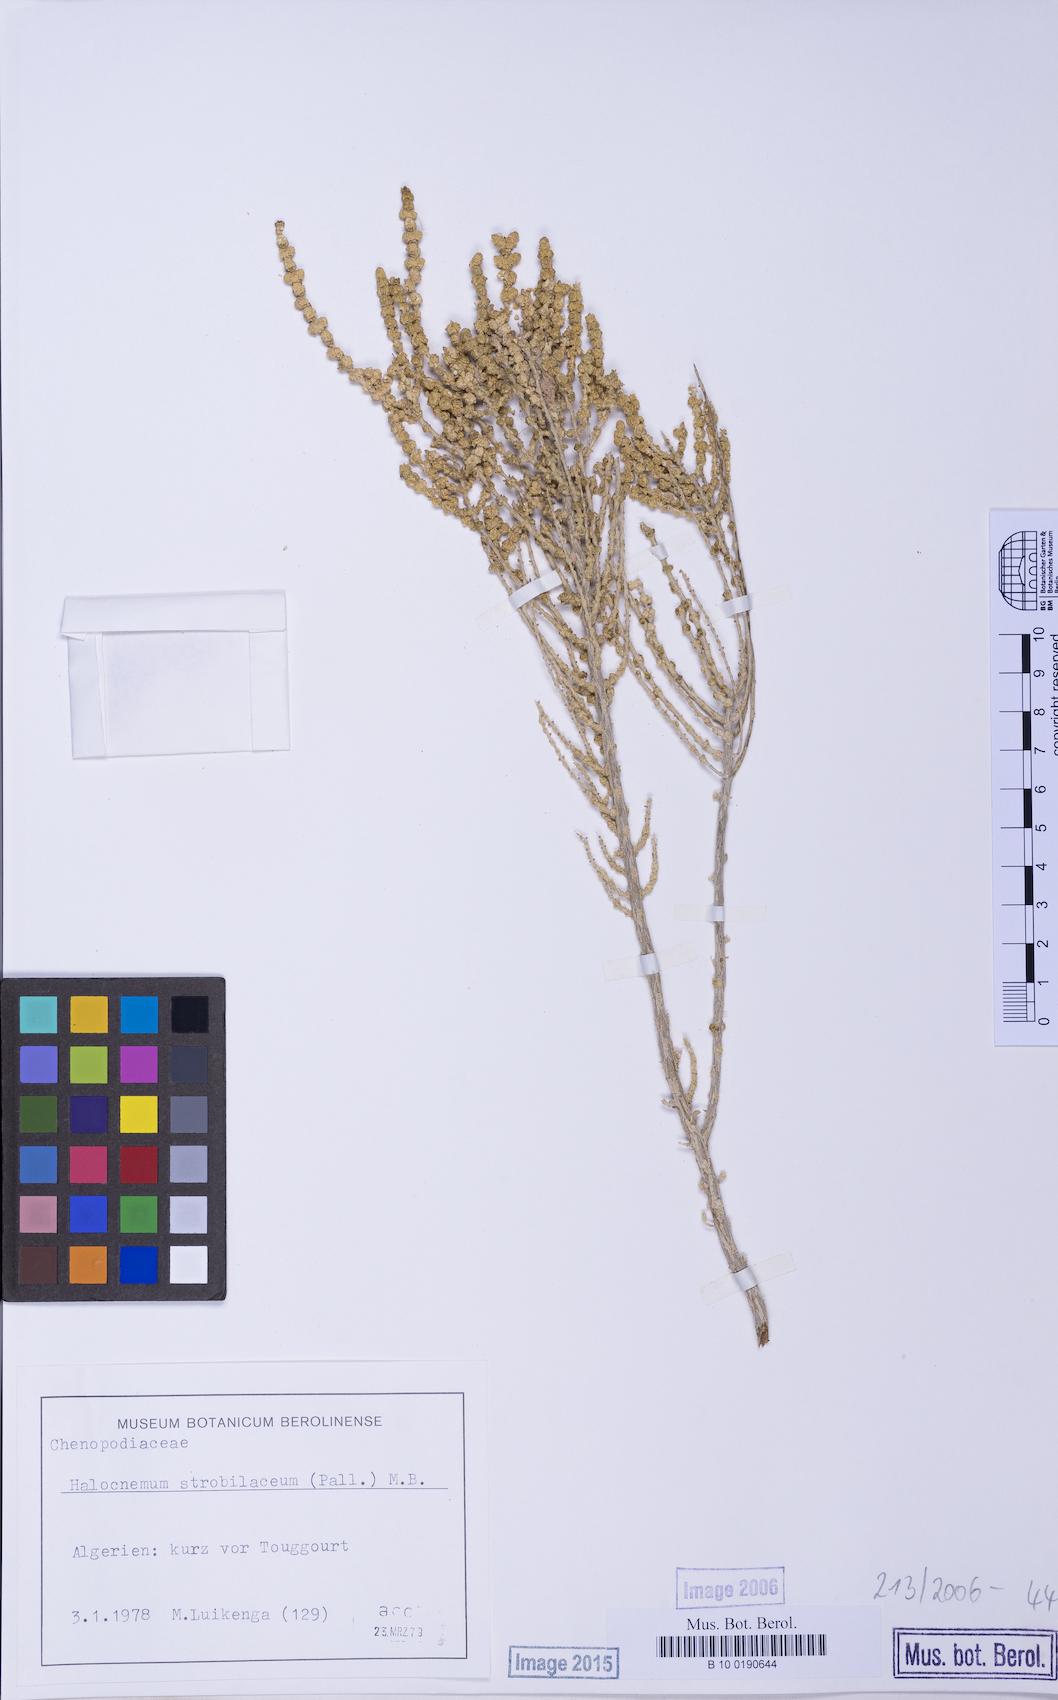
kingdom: Plantae
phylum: Tracheophyta
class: Magnoliopsida
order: Caryophyllales
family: Amaranthaceae
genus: Halocnemum
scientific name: Halocnemum strobilaceum
